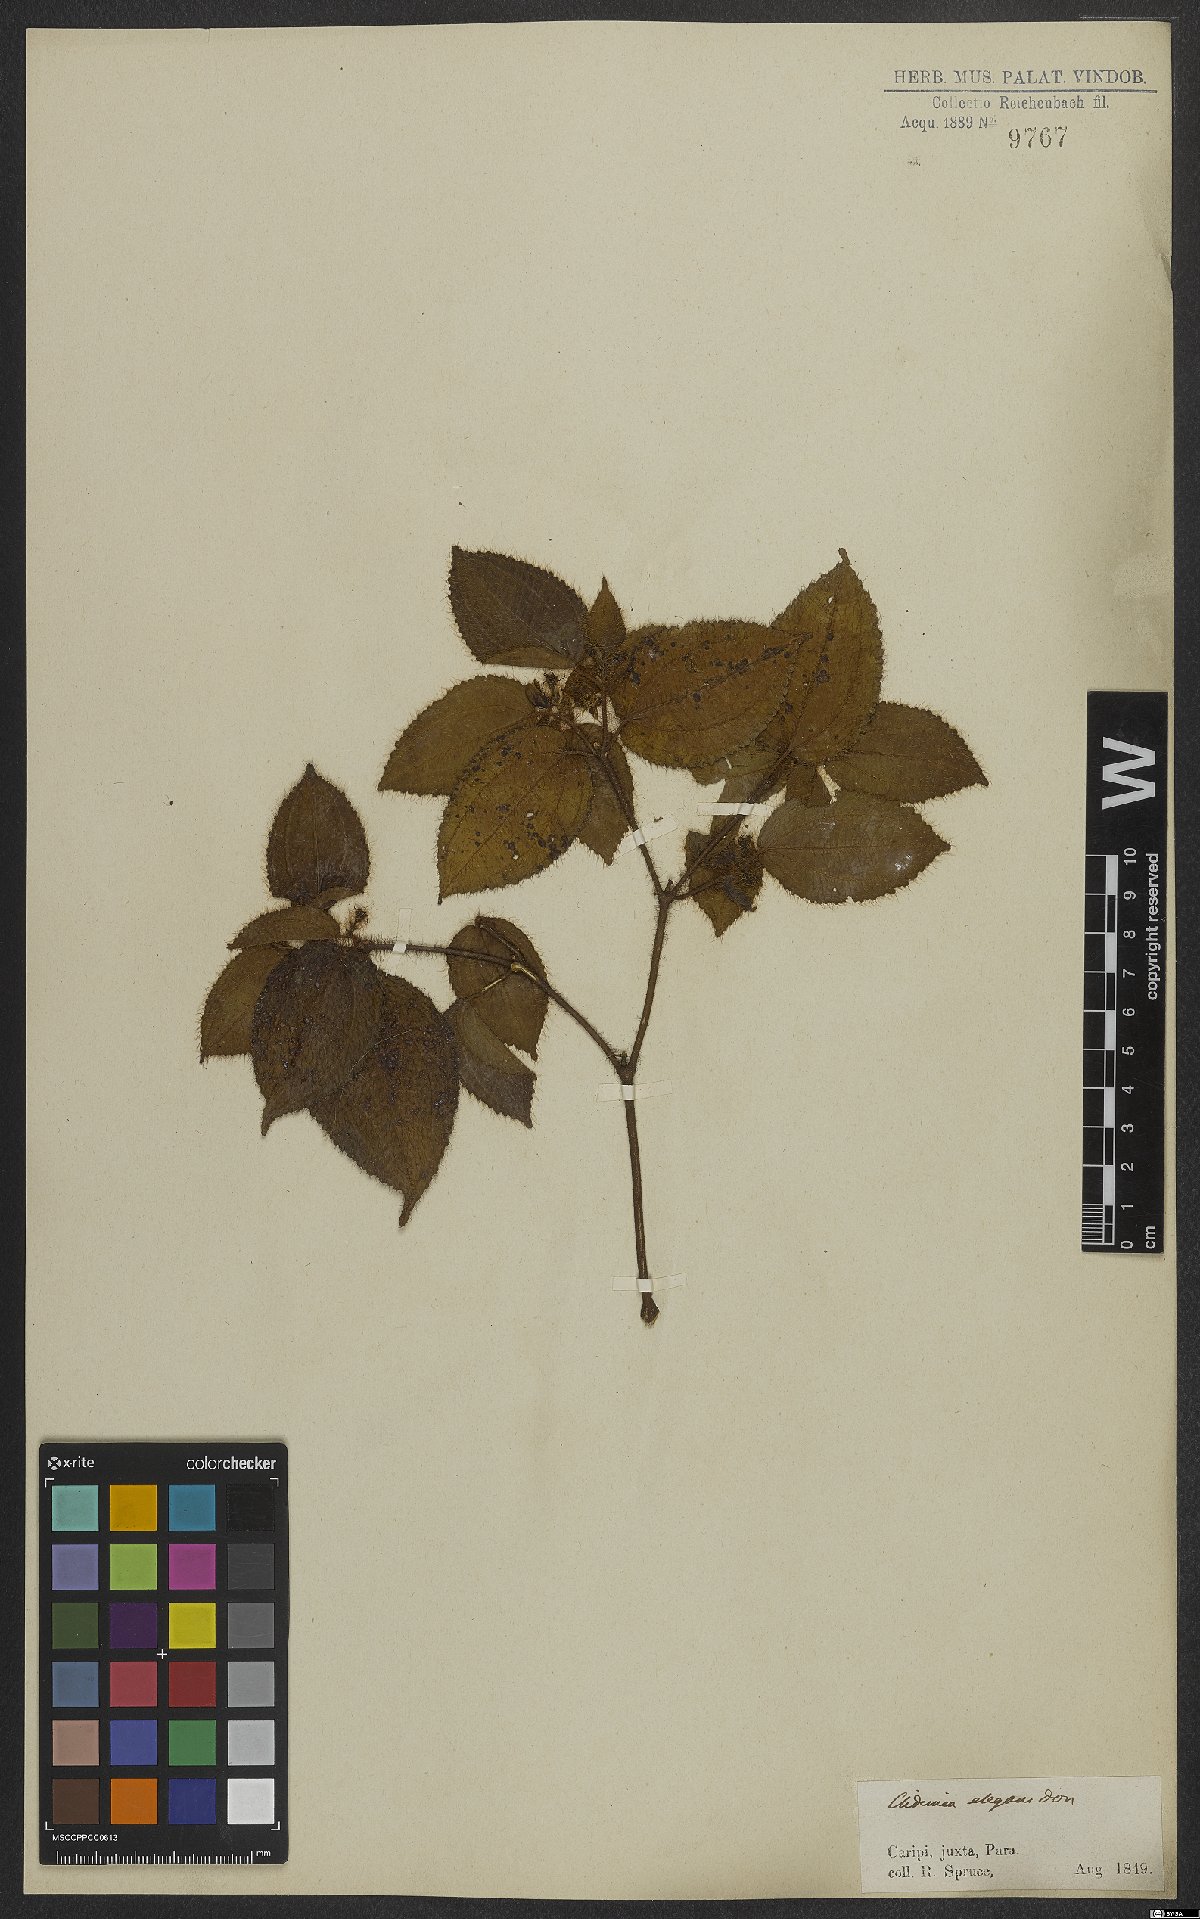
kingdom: Plantae
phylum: Tracheophyta
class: Magnoliopsida
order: Myrtales
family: Melastomataceae
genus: Miconia
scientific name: Miconia crenata
